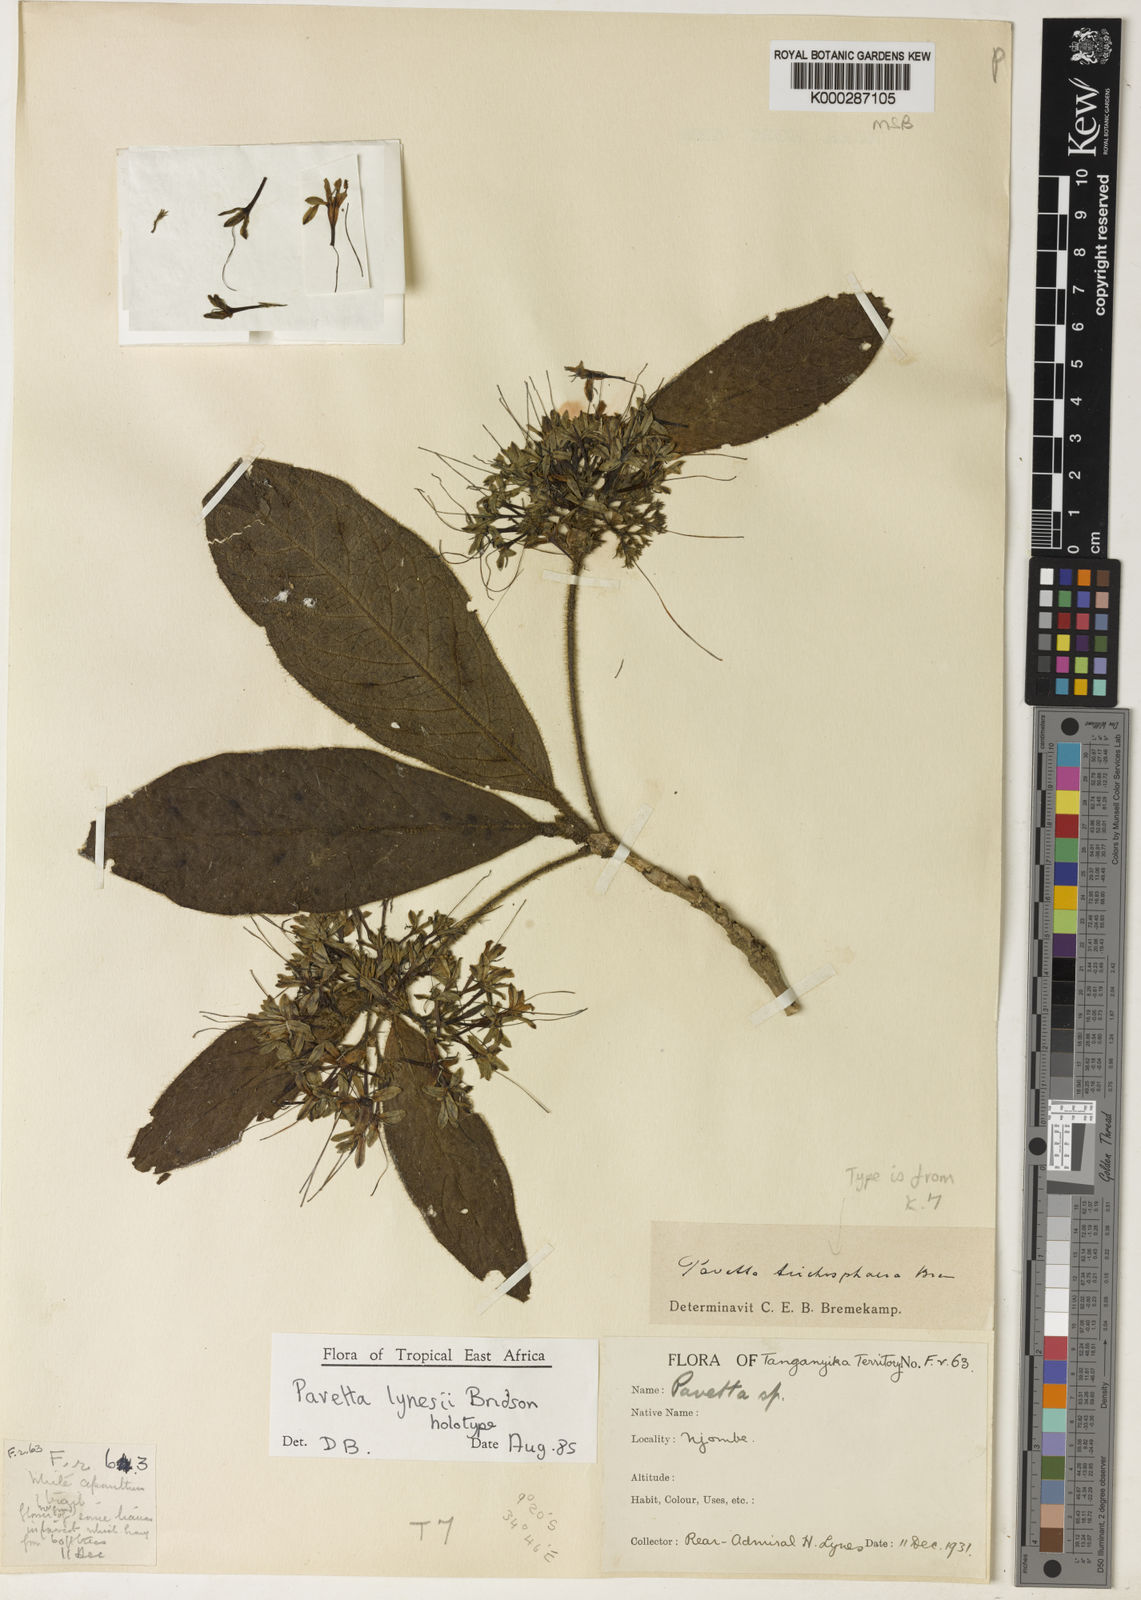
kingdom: Plantae
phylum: Tracheophyta
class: Magnoliopsida
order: Gentianales
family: Rubiaceae
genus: Pavetta
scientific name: Pavetta lynesii
